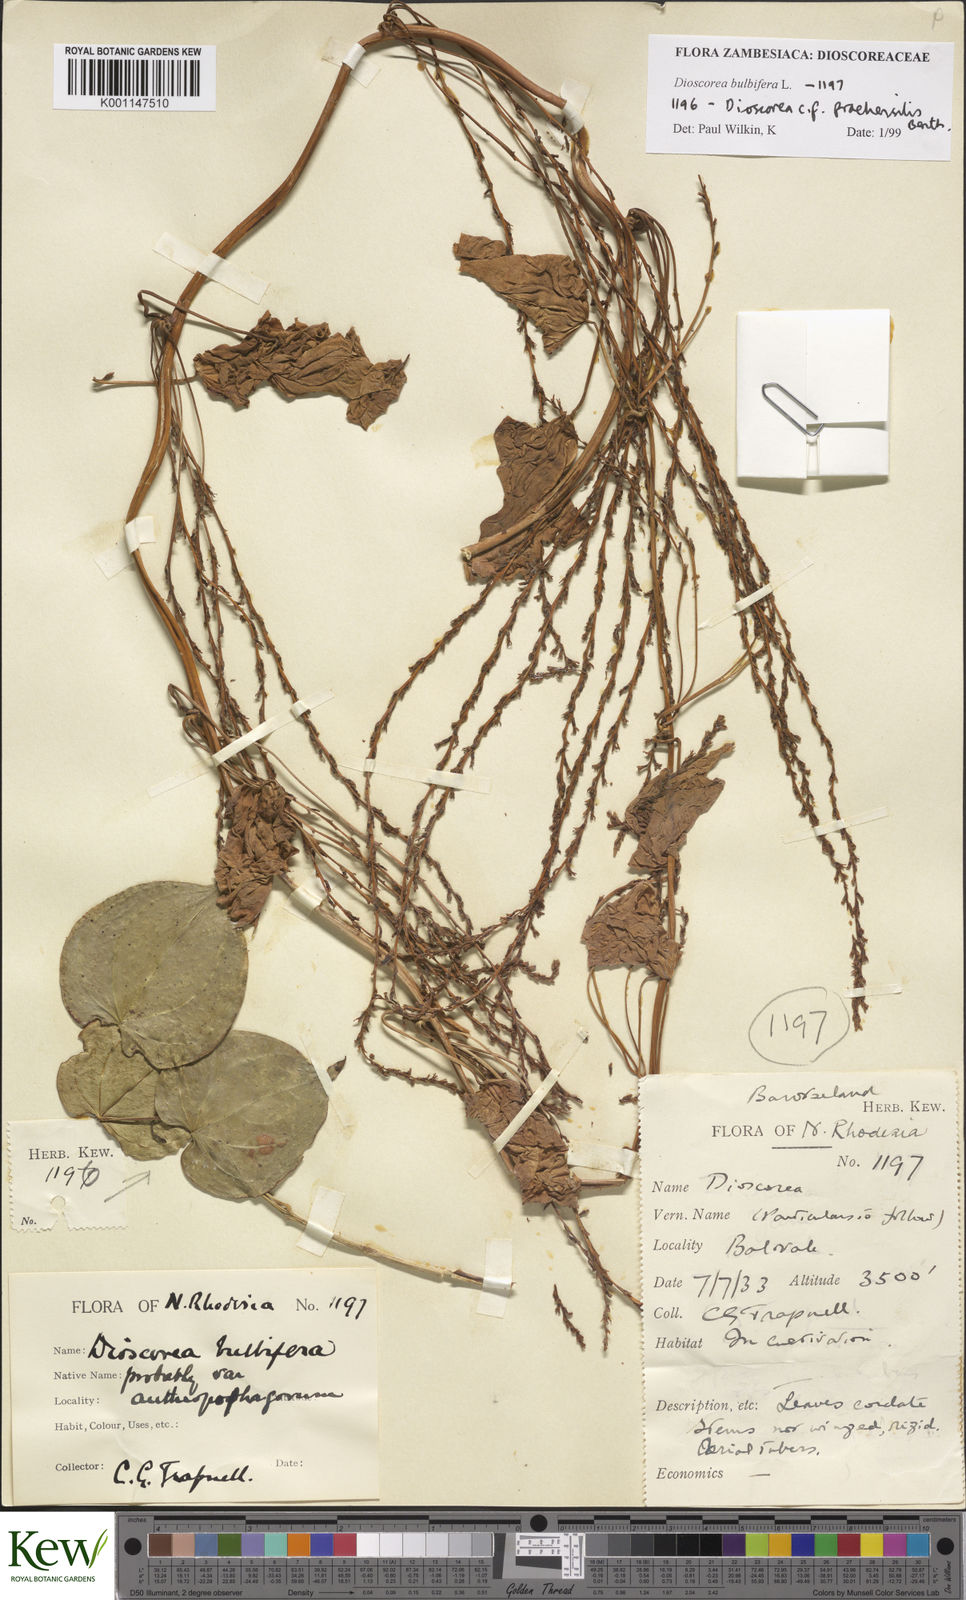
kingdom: Plantae
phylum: Tracheophyta
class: Liliopsida
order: Dioscoreales
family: Dioscoreaceae
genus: Dioscorea
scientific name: Dioscorea bulbifera
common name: Air yam
